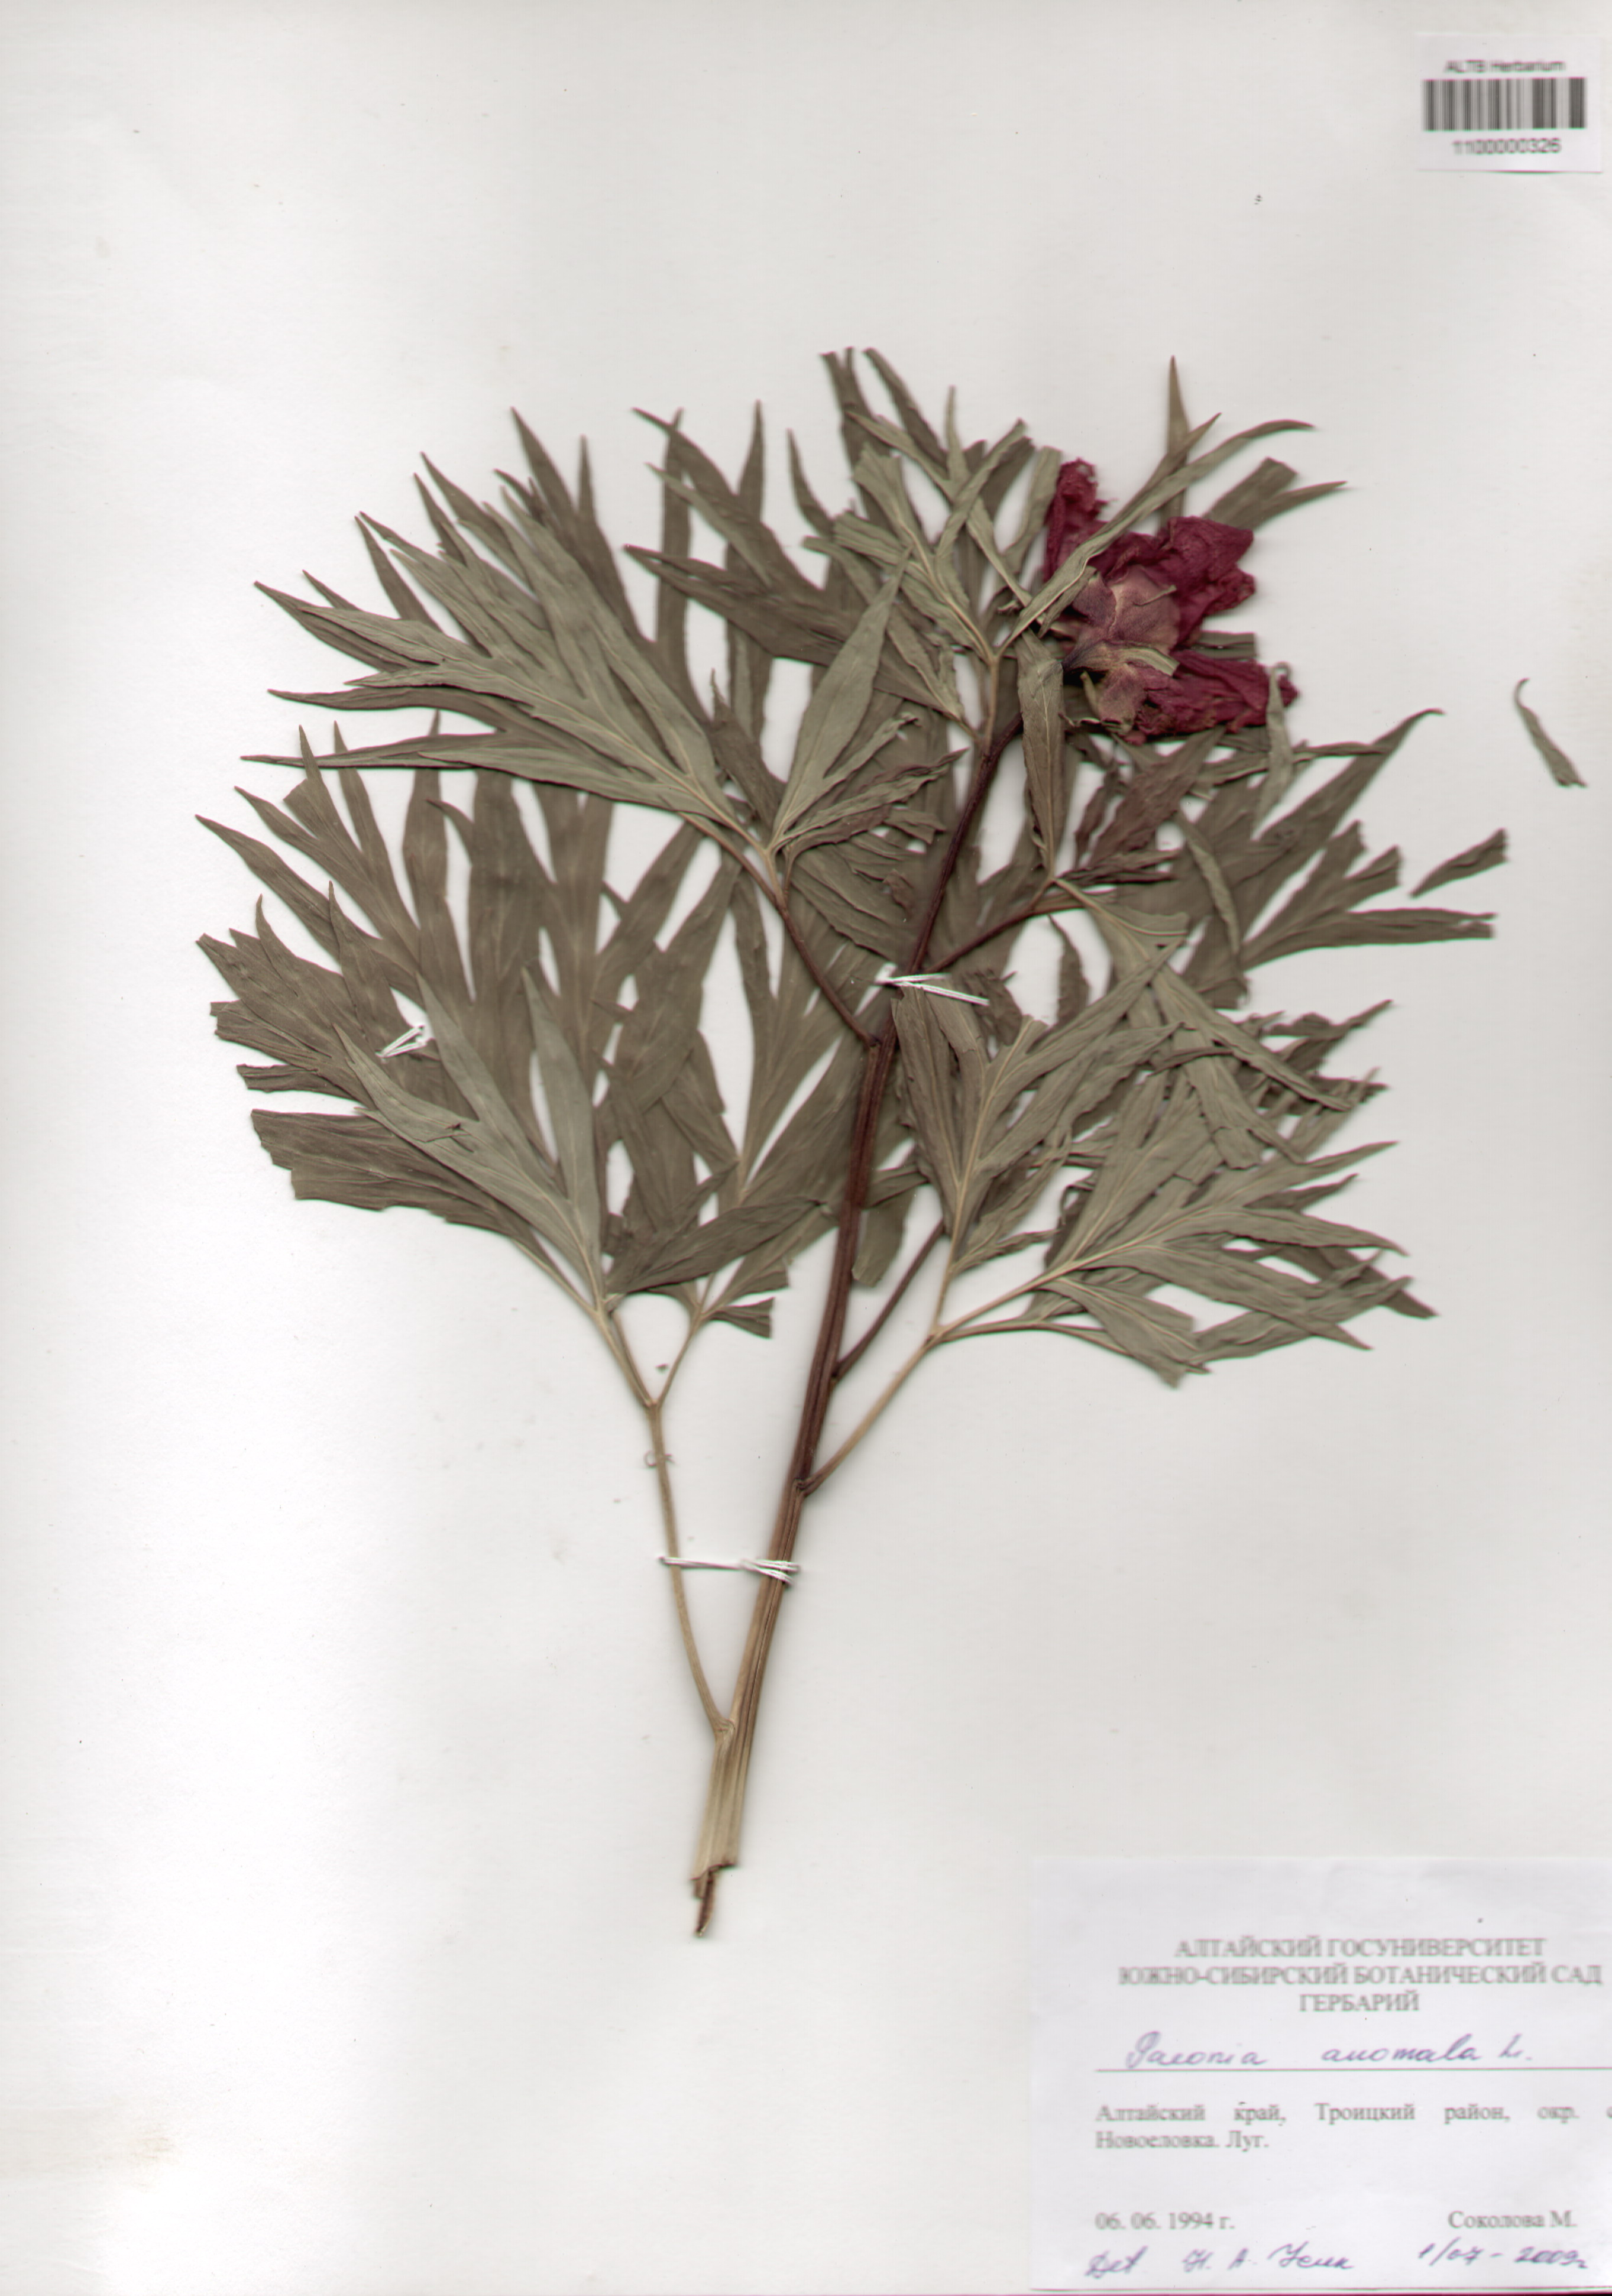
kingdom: Plantae
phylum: Tracheophyta
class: Magnoliopsida
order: Saxifragales
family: Paeoniaceae
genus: Paeonia
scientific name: Paeonia anomala
